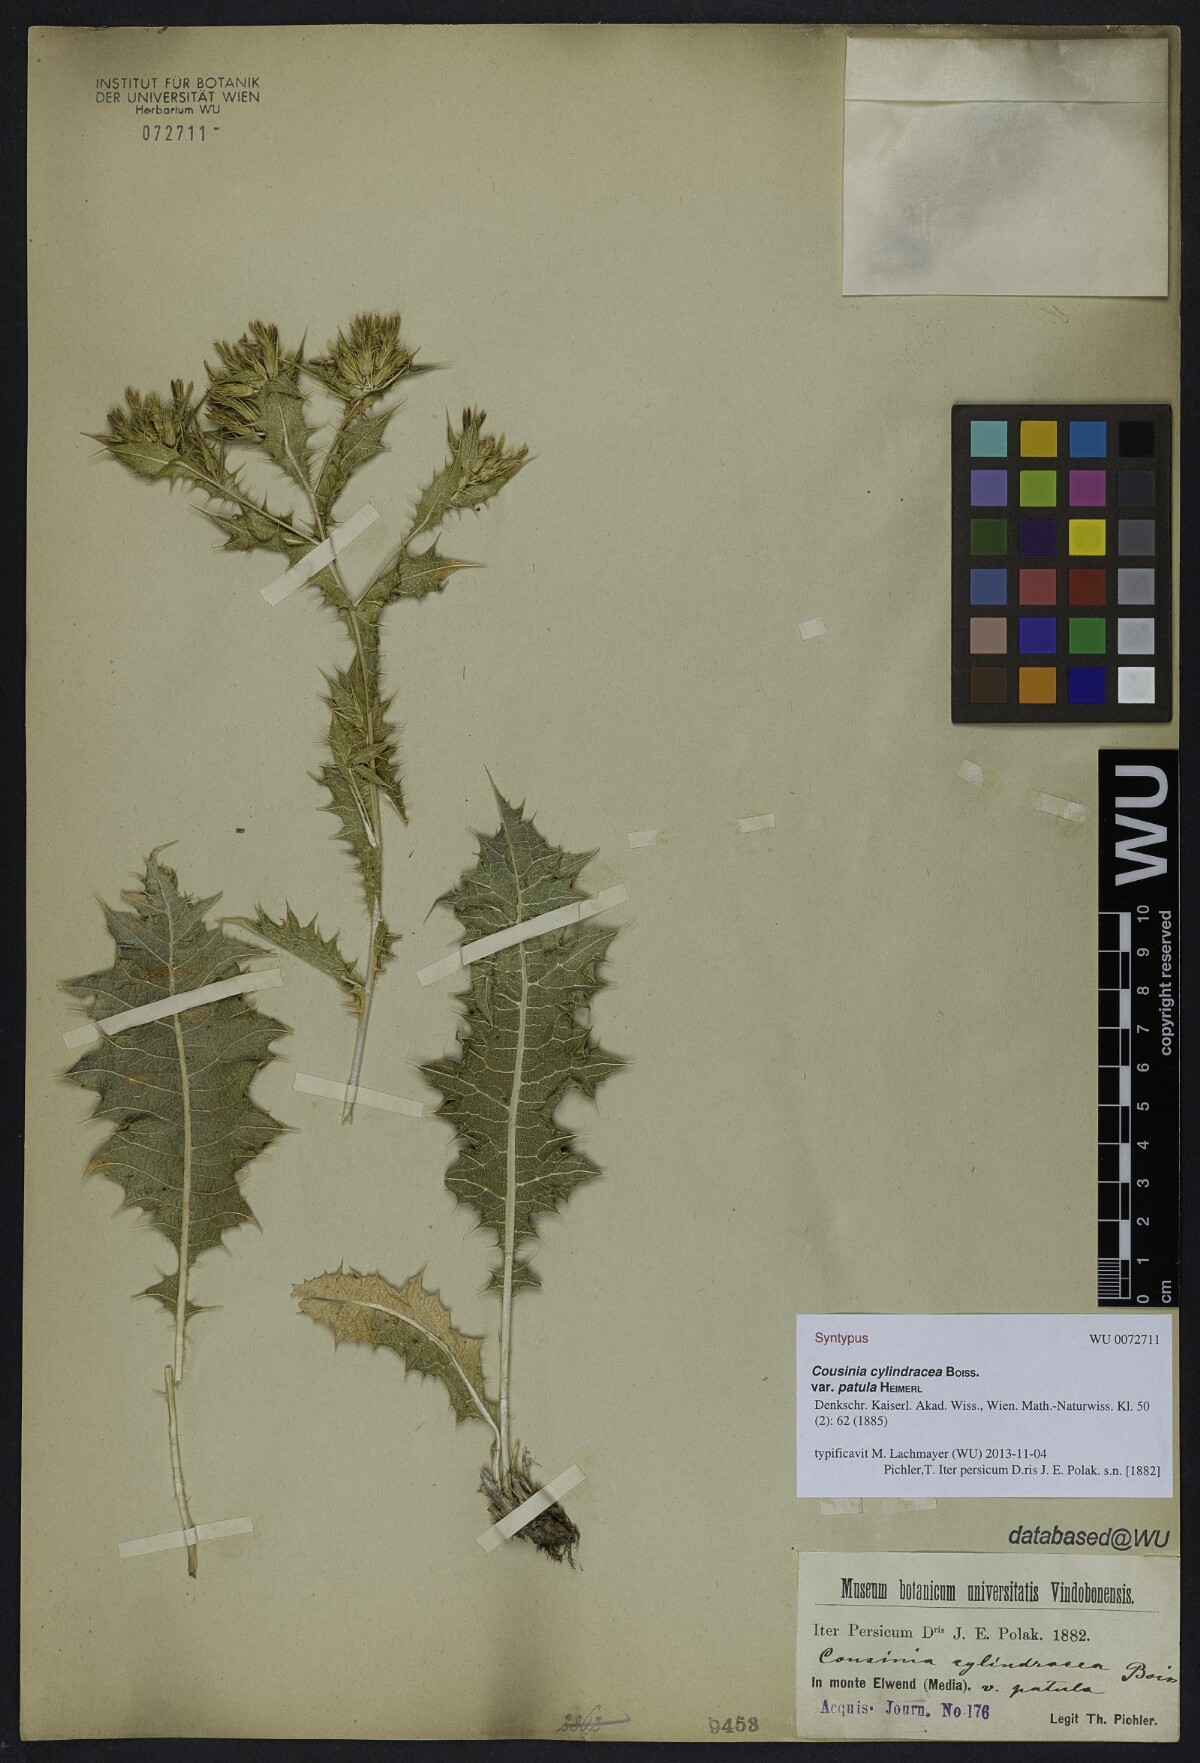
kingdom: Plantae
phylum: Tracheophyta
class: Magnoliopsida
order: Asterales
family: Asteraceae
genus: Cousinia
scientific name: Cousinia cylindracea
